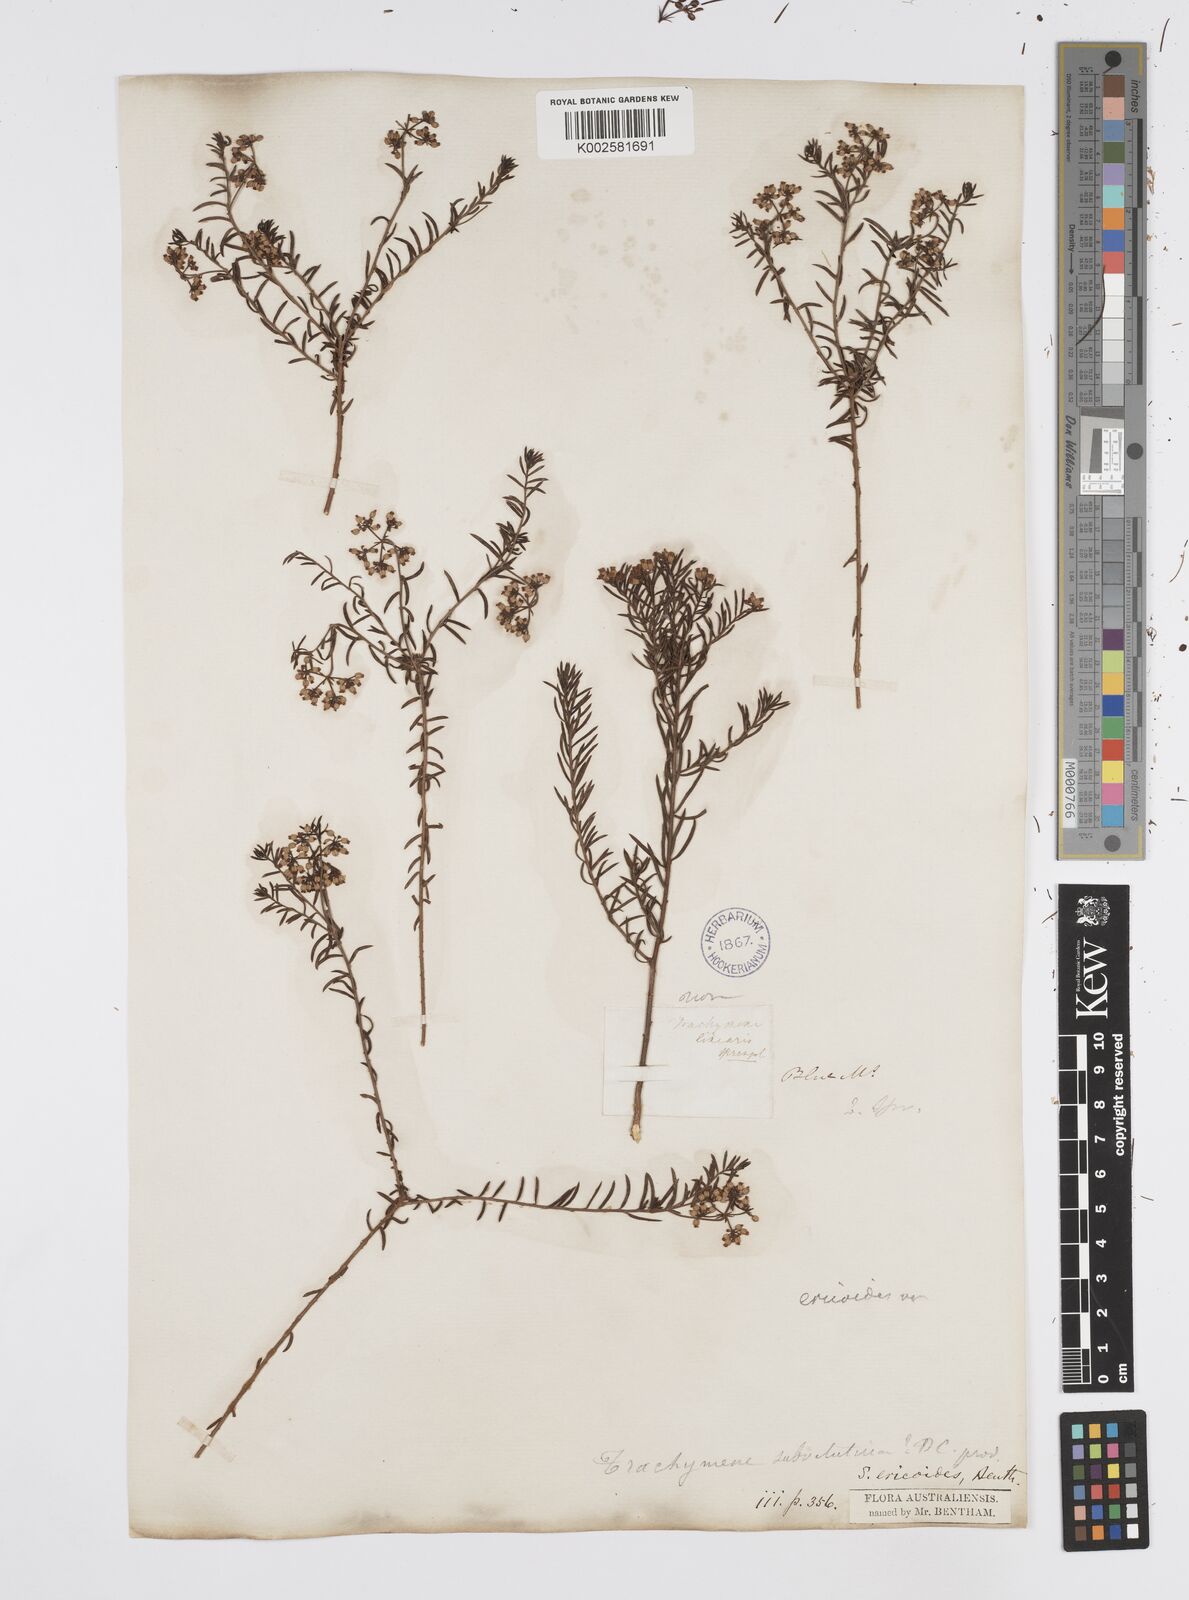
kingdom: Plantae
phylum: Tracheophyta
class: Magnoliopsida
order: Apiales
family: Apiaceae
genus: Platysace
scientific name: Platysace ericoides
